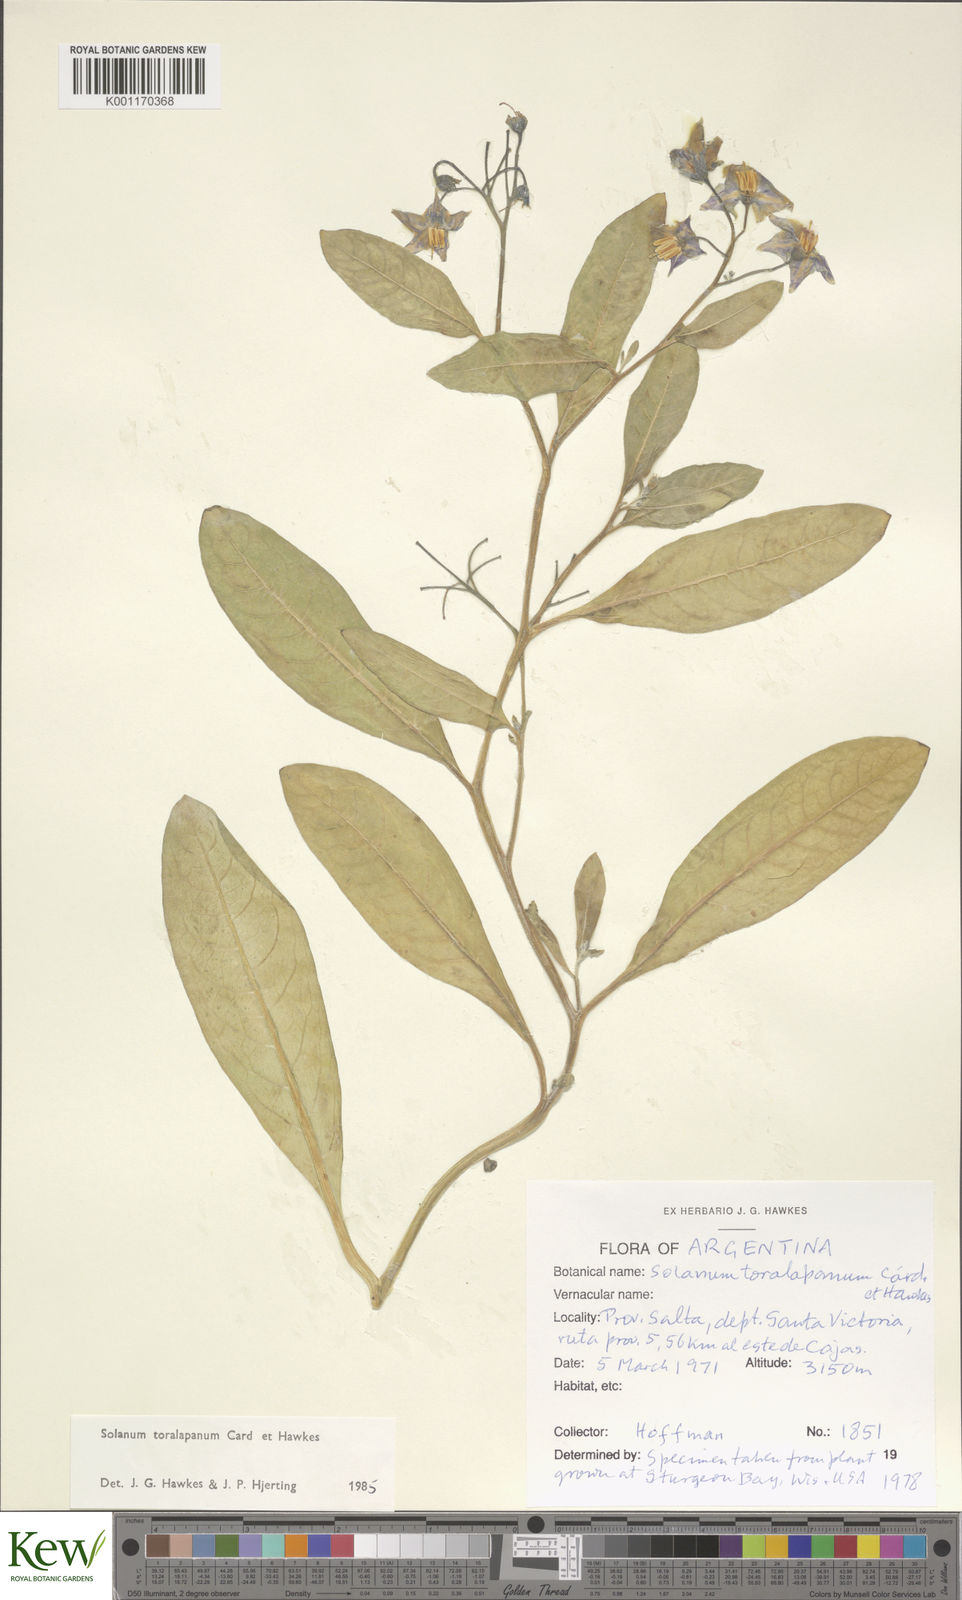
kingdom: Plantae
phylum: Tracheophyta
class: Magnoliopsida
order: Solanales
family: Solanaceae
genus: Solanum
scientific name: Solanum
